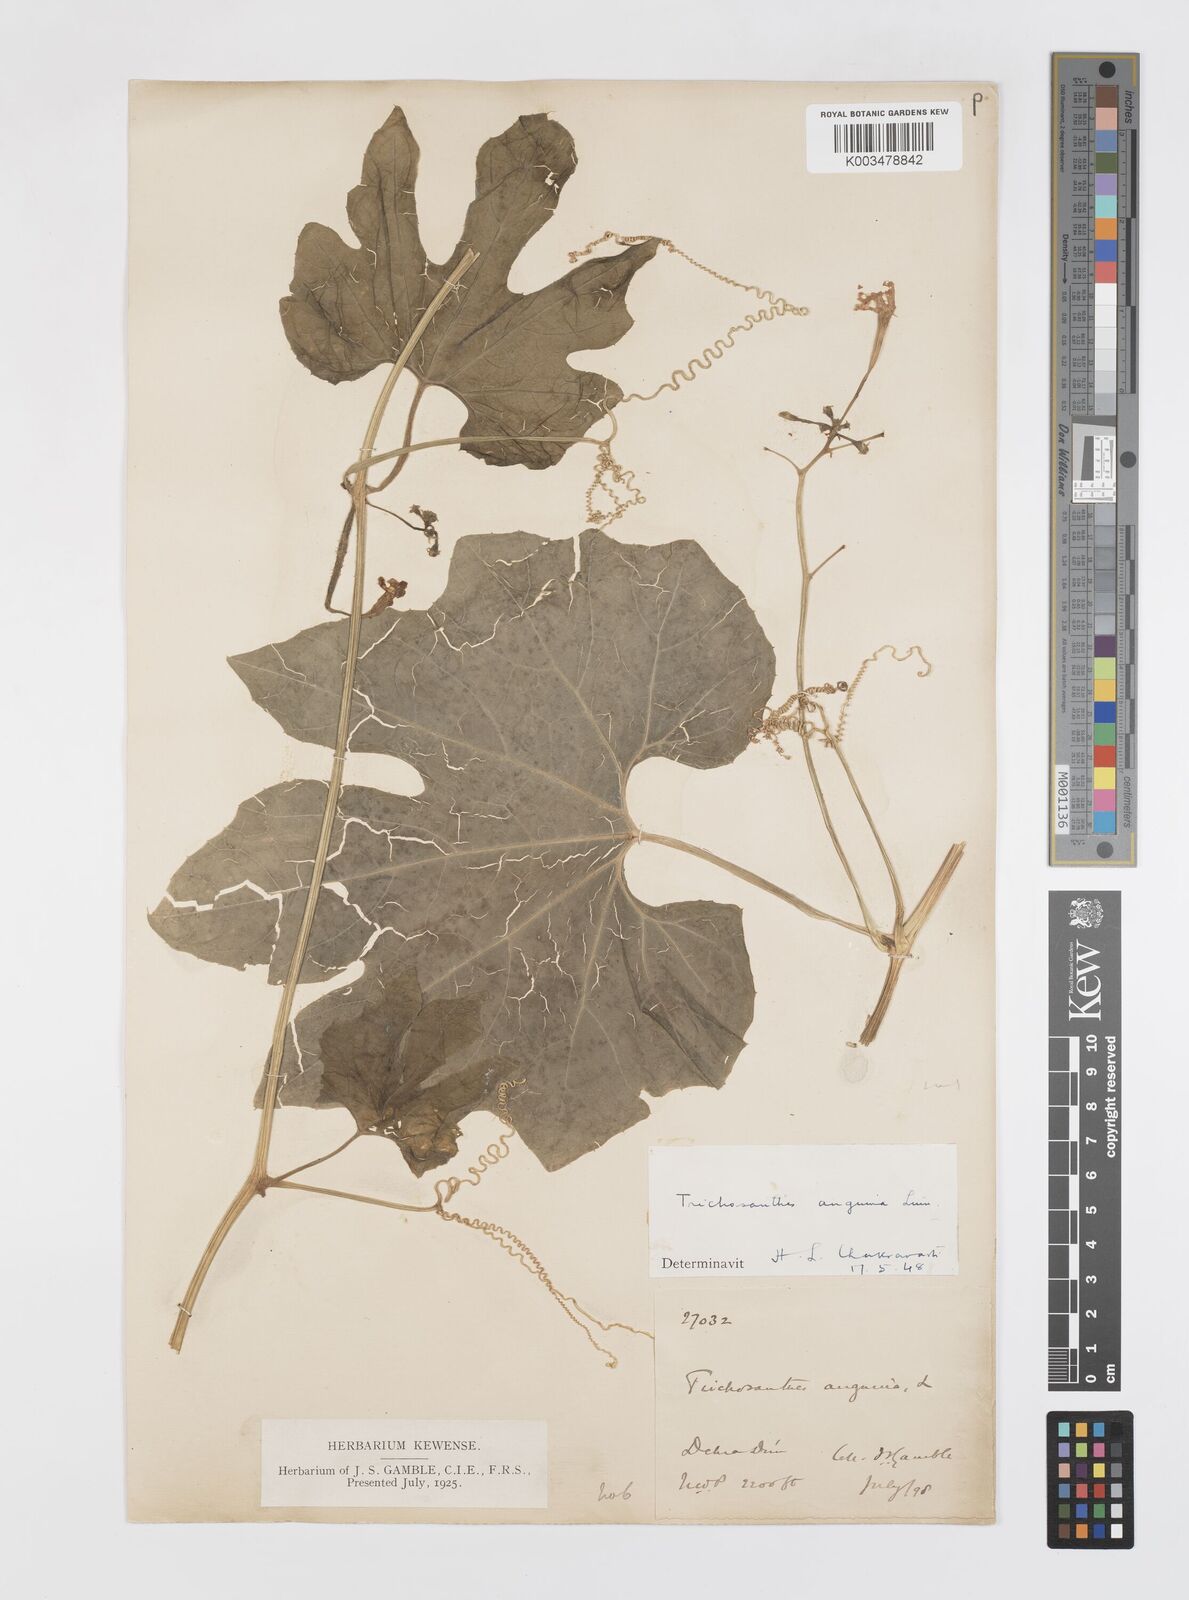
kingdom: Plantae
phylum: Tracheophyta
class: Magnoliopsida
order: Cucurbitales
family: Cucurbitaceae
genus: Trichosanthes
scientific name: Trichosanthes cucumerina
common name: Snakegourd
